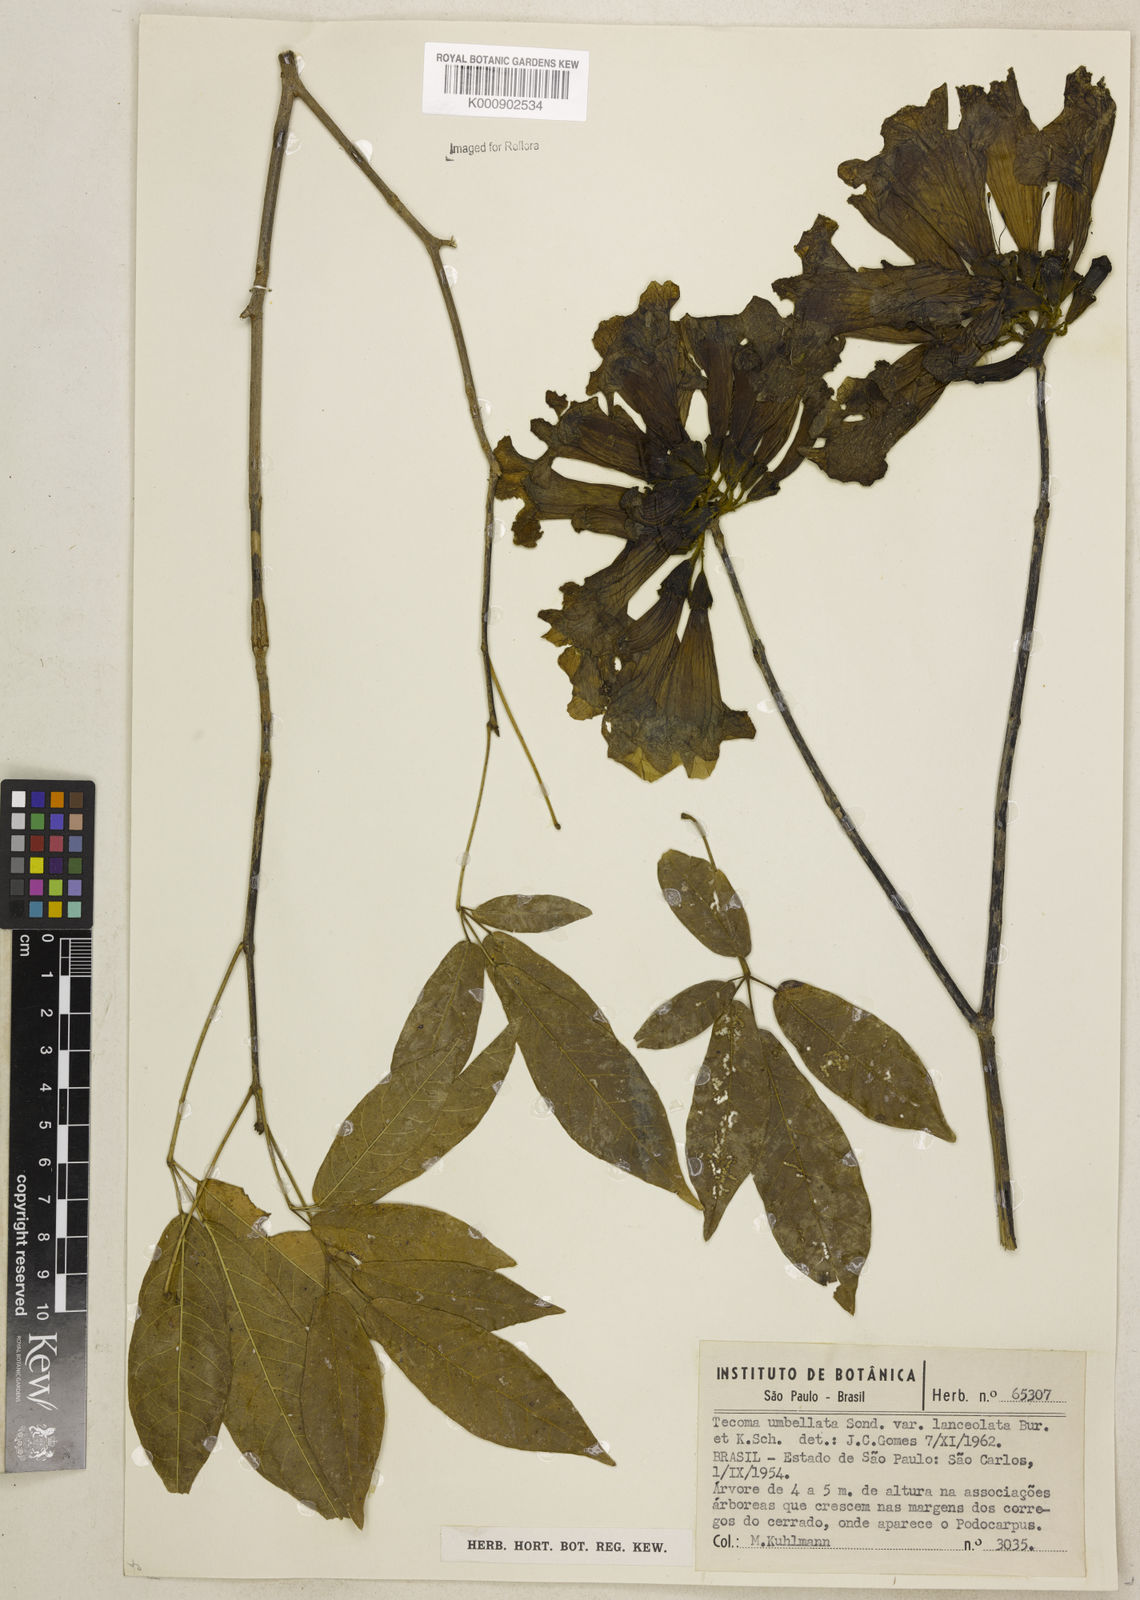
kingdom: Plantae
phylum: Tracheophyta
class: Magnoliopsida
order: Lamiales
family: Bignoniaceae
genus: Handroanthus
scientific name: Handroanthus umbellatus
